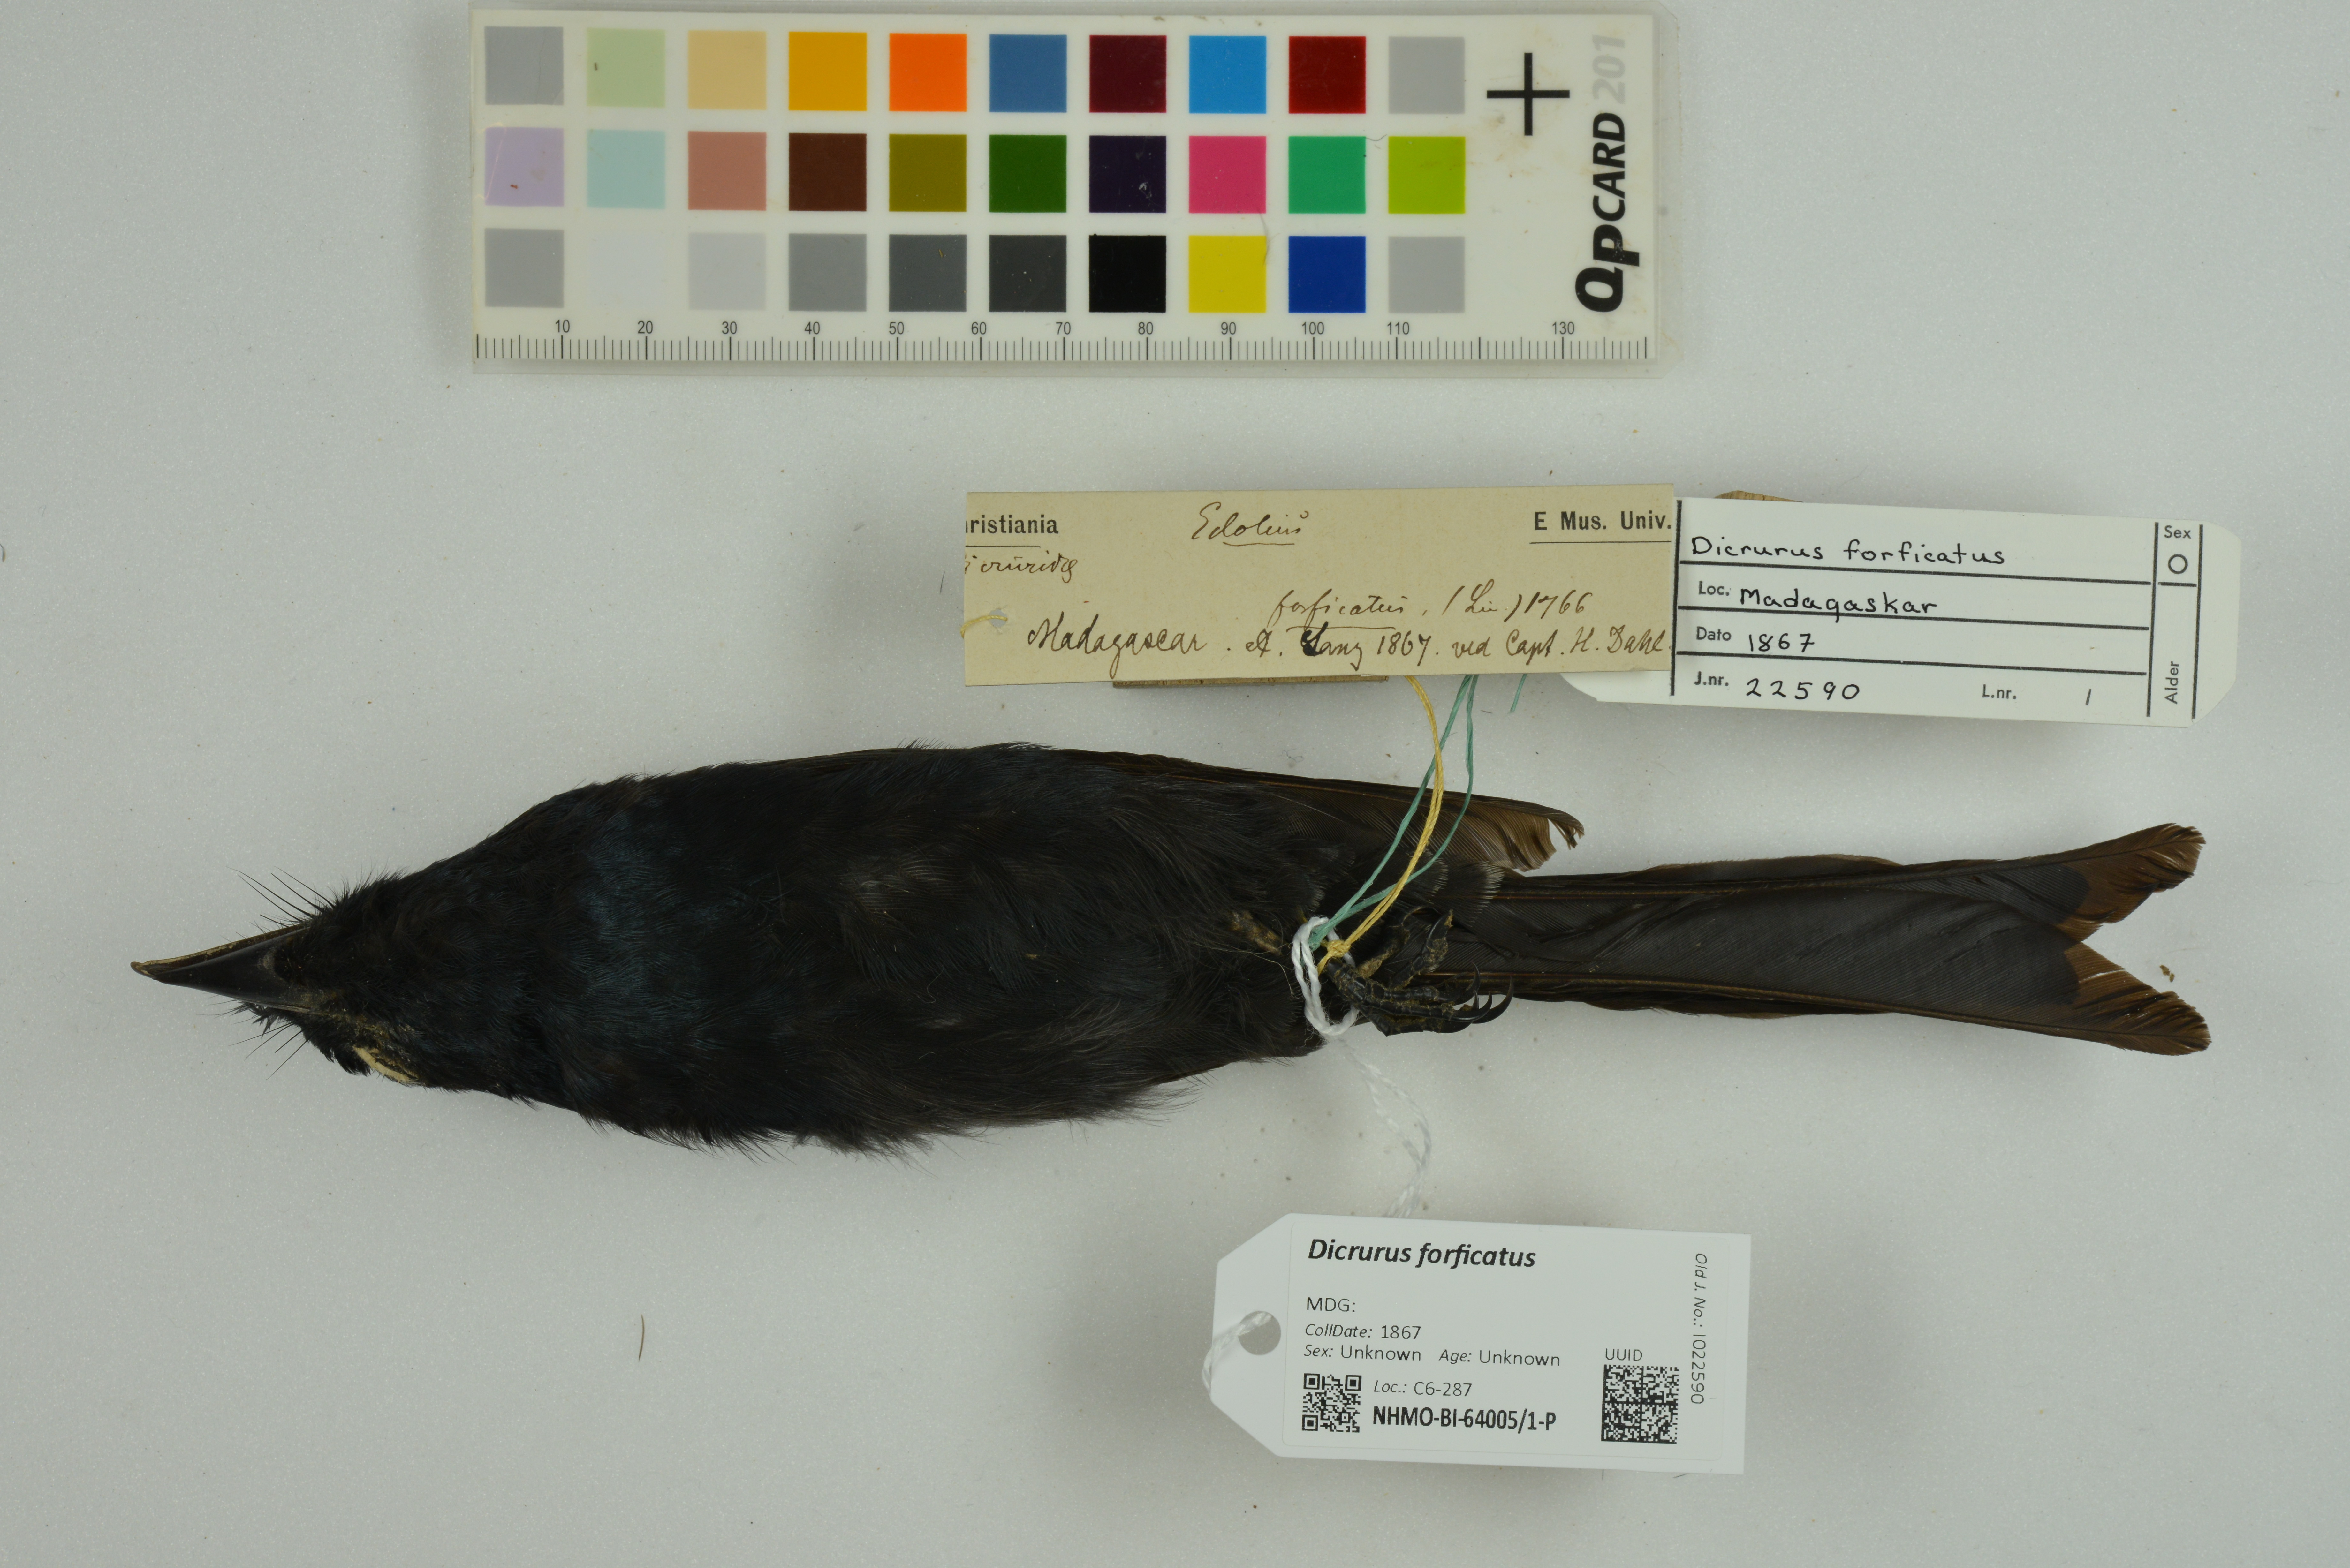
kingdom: Animalia
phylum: Chordata
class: Aves
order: Passeriformes
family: Dicruridae
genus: Dicrurus
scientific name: Dicrurus forficatus
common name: Crested drongo
